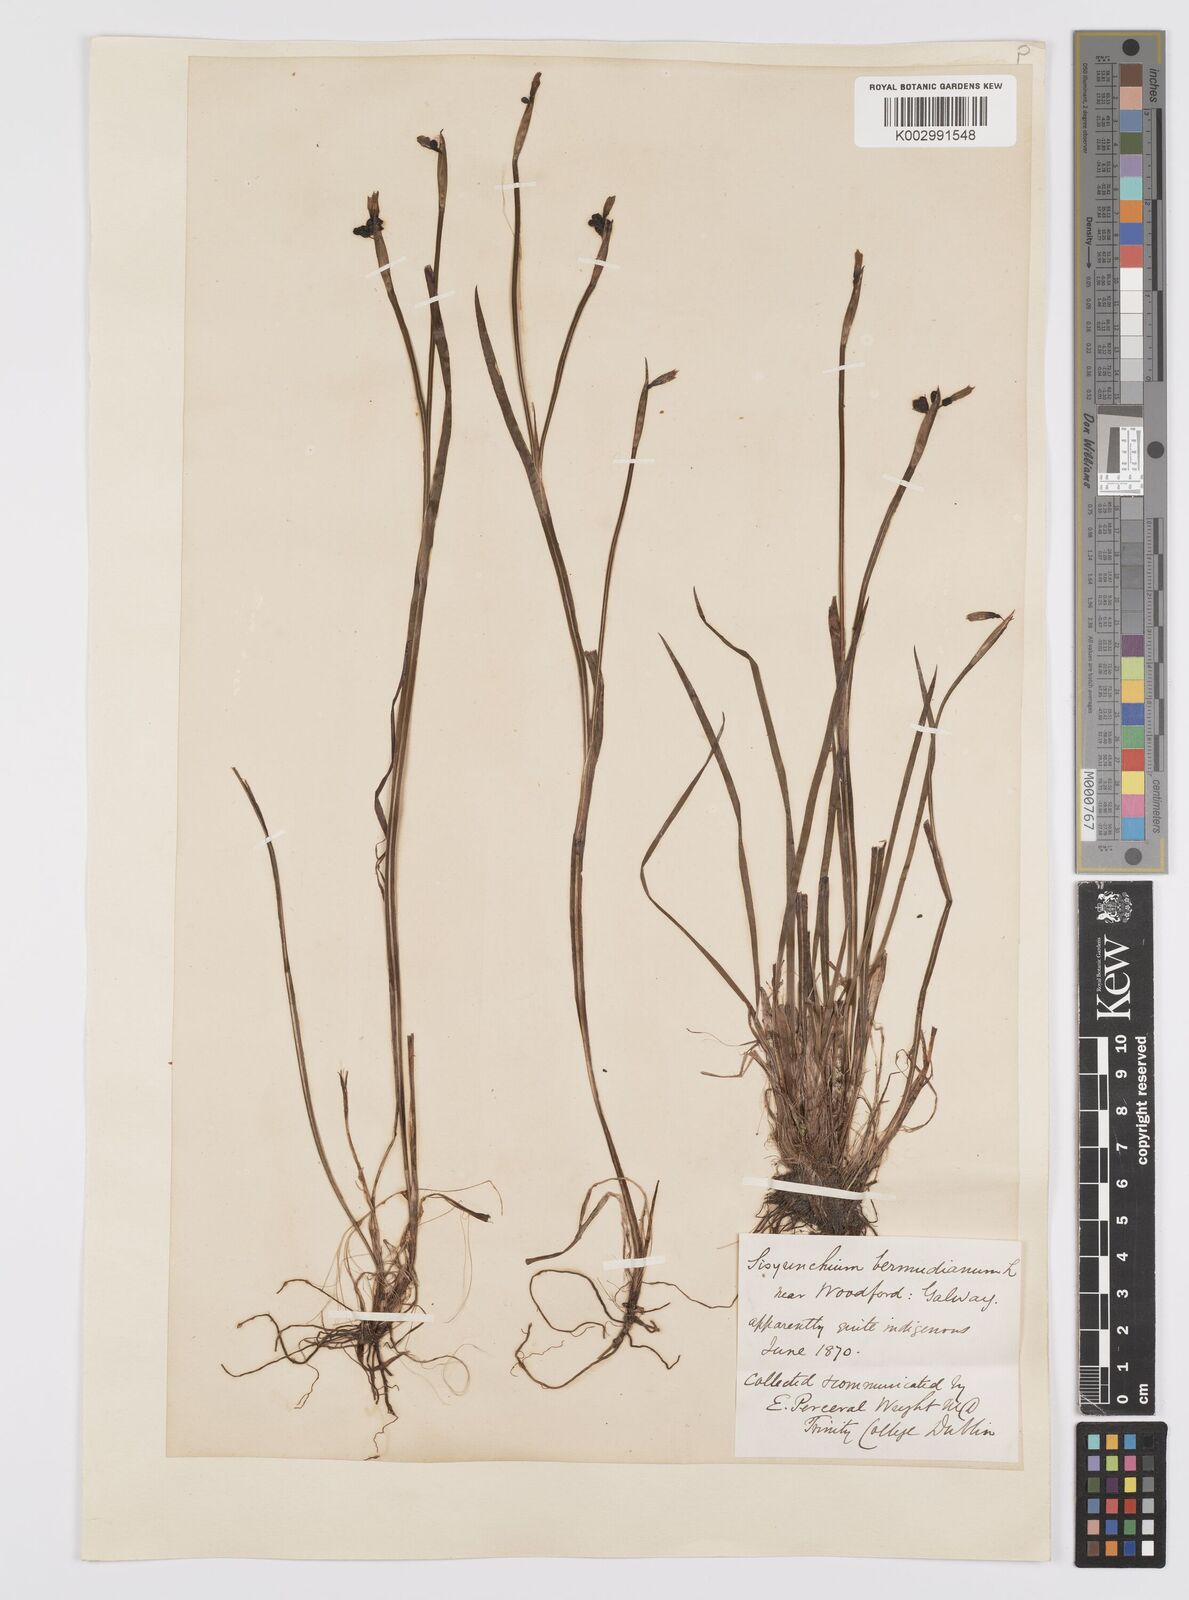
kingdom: Plantae
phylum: Tracheophyta
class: Liliopsida
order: Asparagales
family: Iridaceae
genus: Sisyrinchium
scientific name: Sisyrinchium angustifolium
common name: Narrow-leaf blue-eyed-grass
